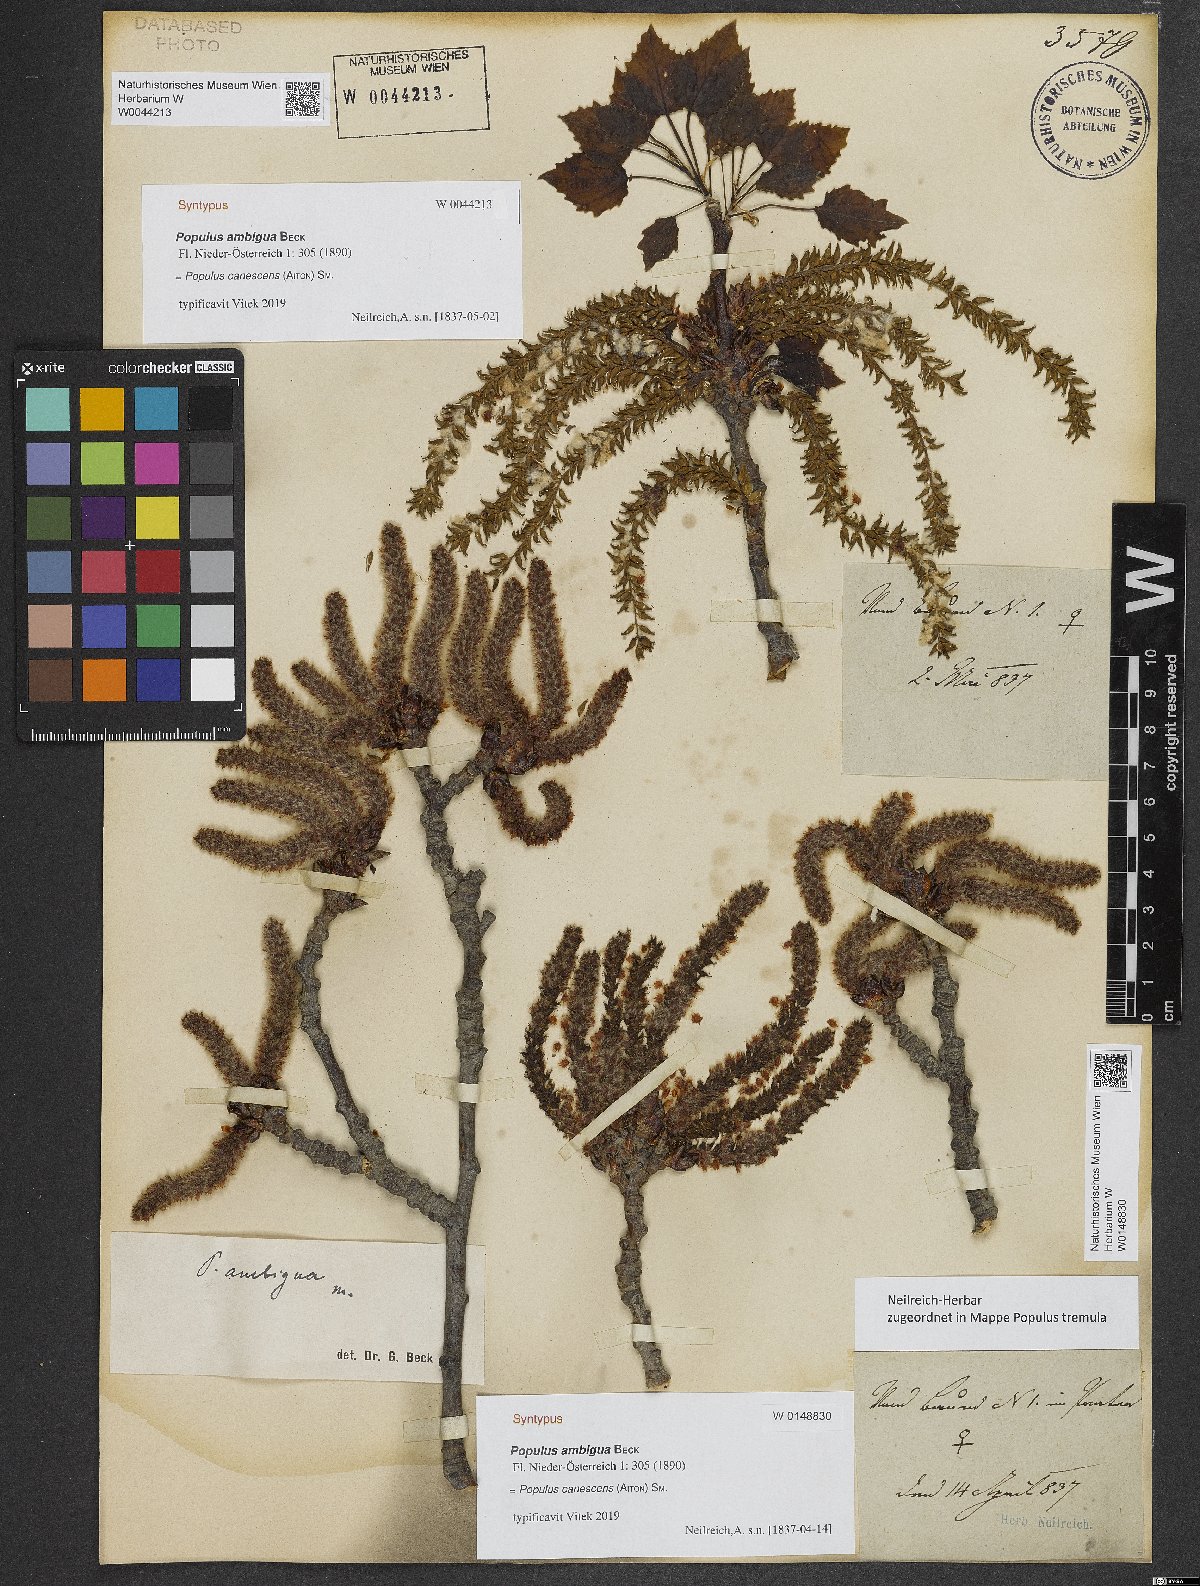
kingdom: Plantae
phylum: Tracheophyta
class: Magnoliopsida
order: Malpighiales
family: Salicaceae
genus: Populus
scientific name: Populus canescens
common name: Gray poplar
